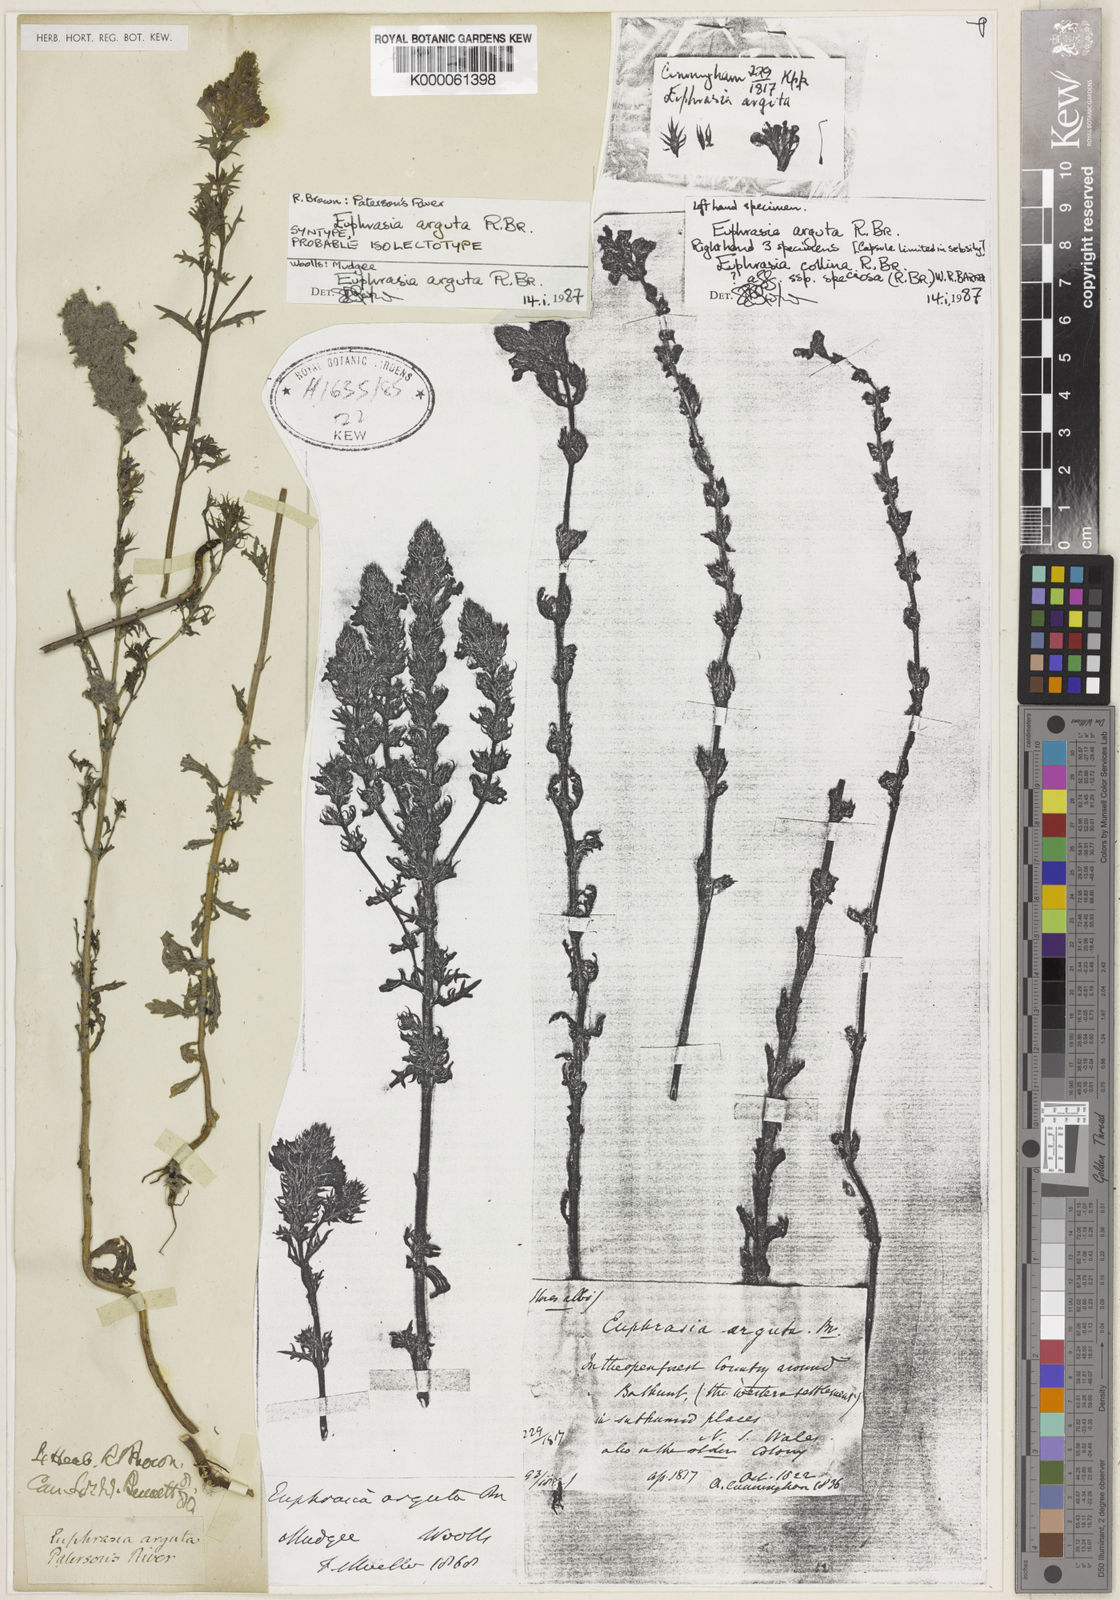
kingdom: Plantae
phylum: Tracheophyta
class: Magnoliopsida
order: Lamiales
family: Orobanchaceae
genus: Euphrasia
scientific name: Euphrasia arguta
